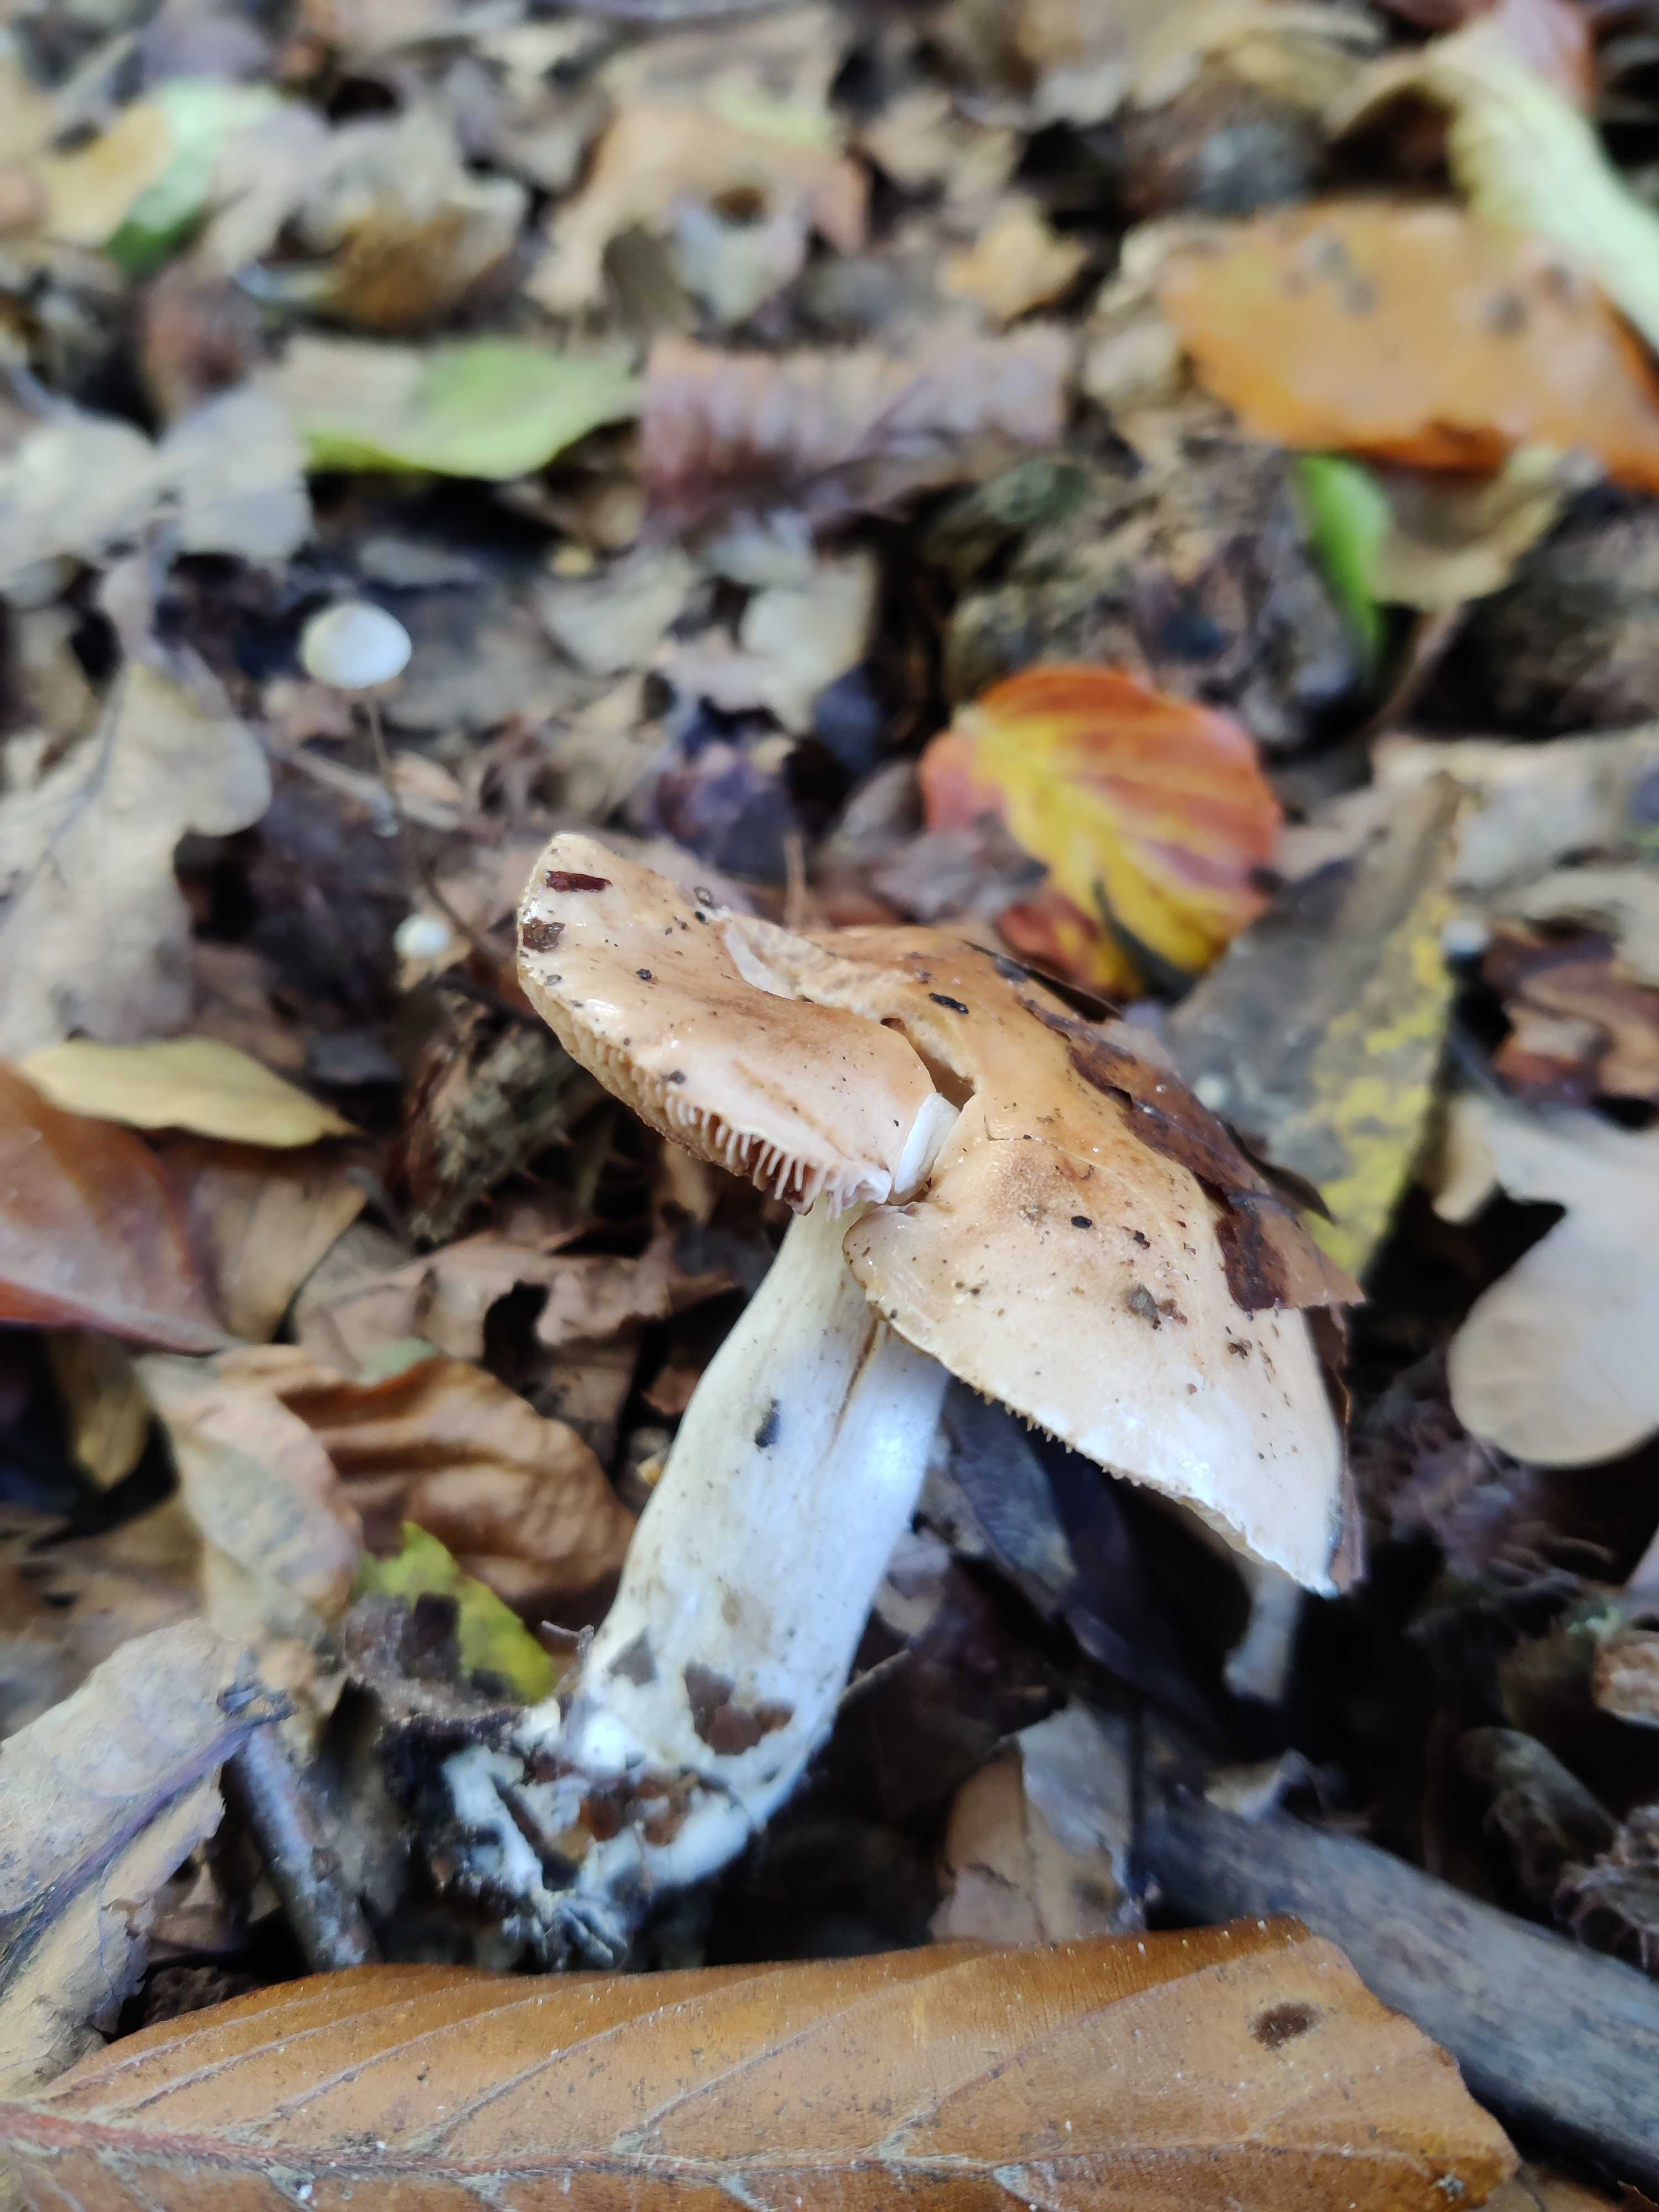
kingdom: Fungi
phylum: Basidiomycota
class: Agaricomycetes
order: Agaricales
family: Hymenogastraceae
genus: Hebeloma
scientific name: Hebeloma
